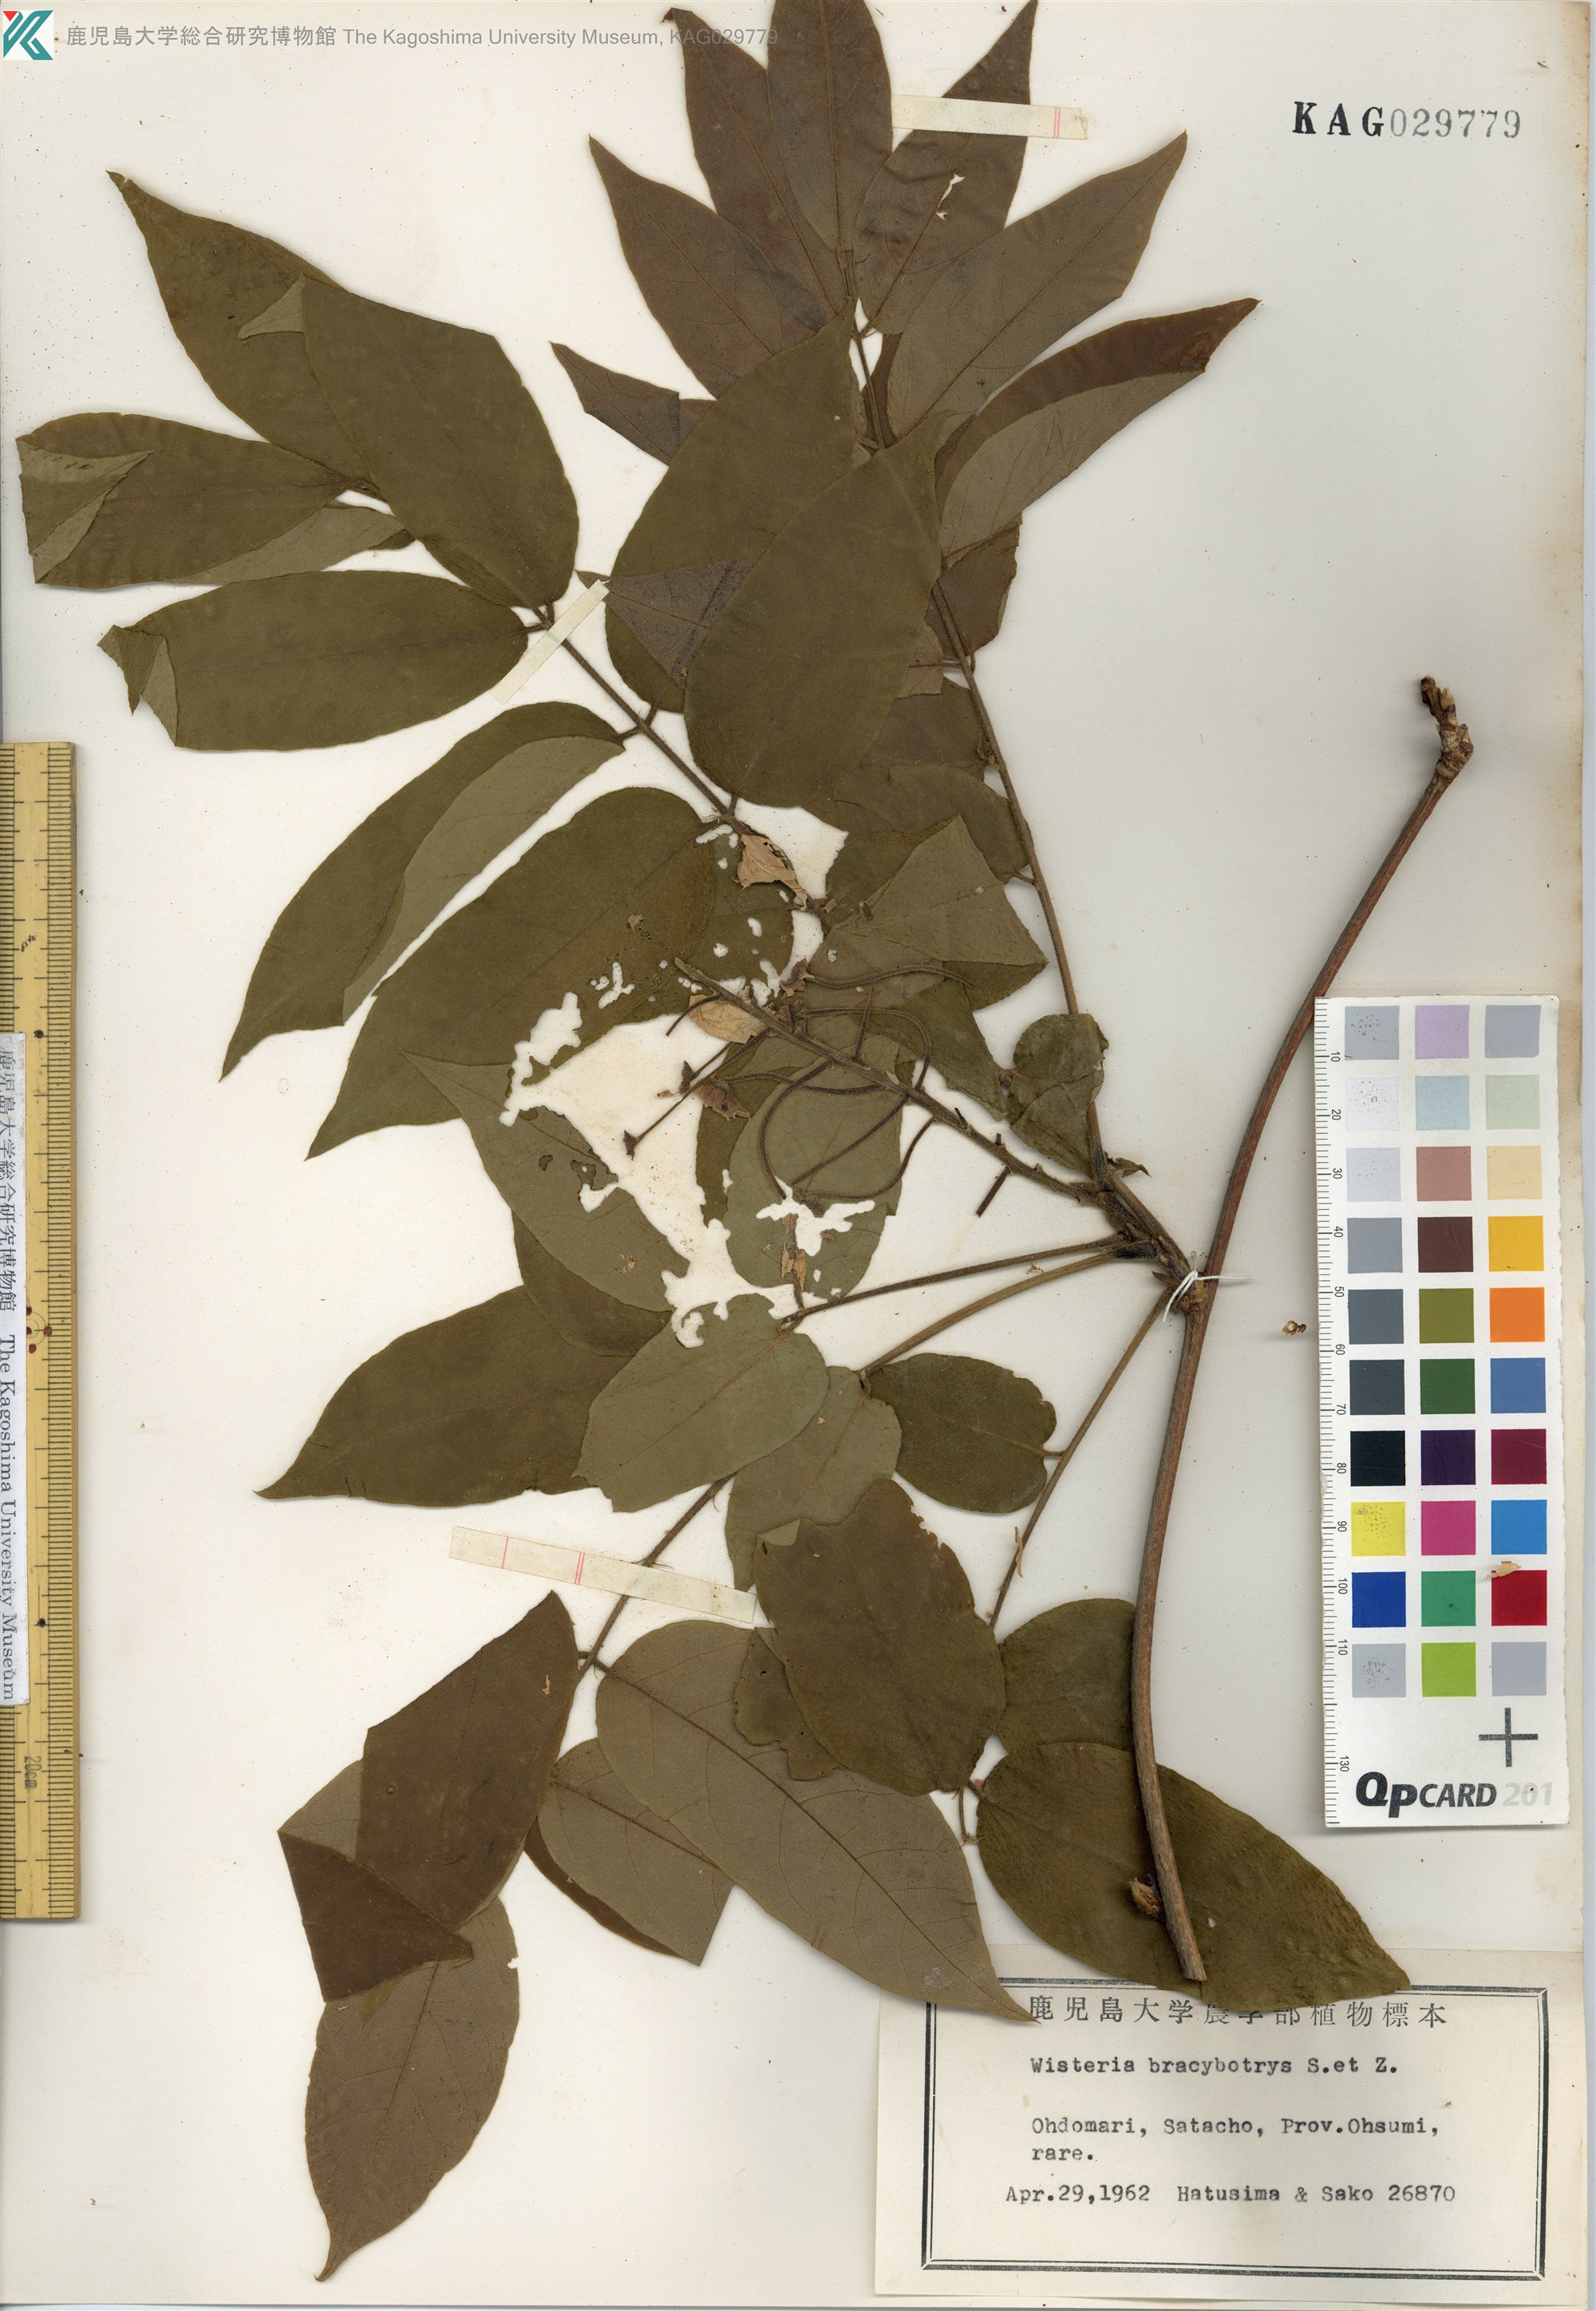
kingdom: Plantae
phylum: Tracheophyta
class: Magnoliopsida
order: Fabales
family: Fabaceae
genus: Wisteria
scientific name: Wisteria brachybotrys
